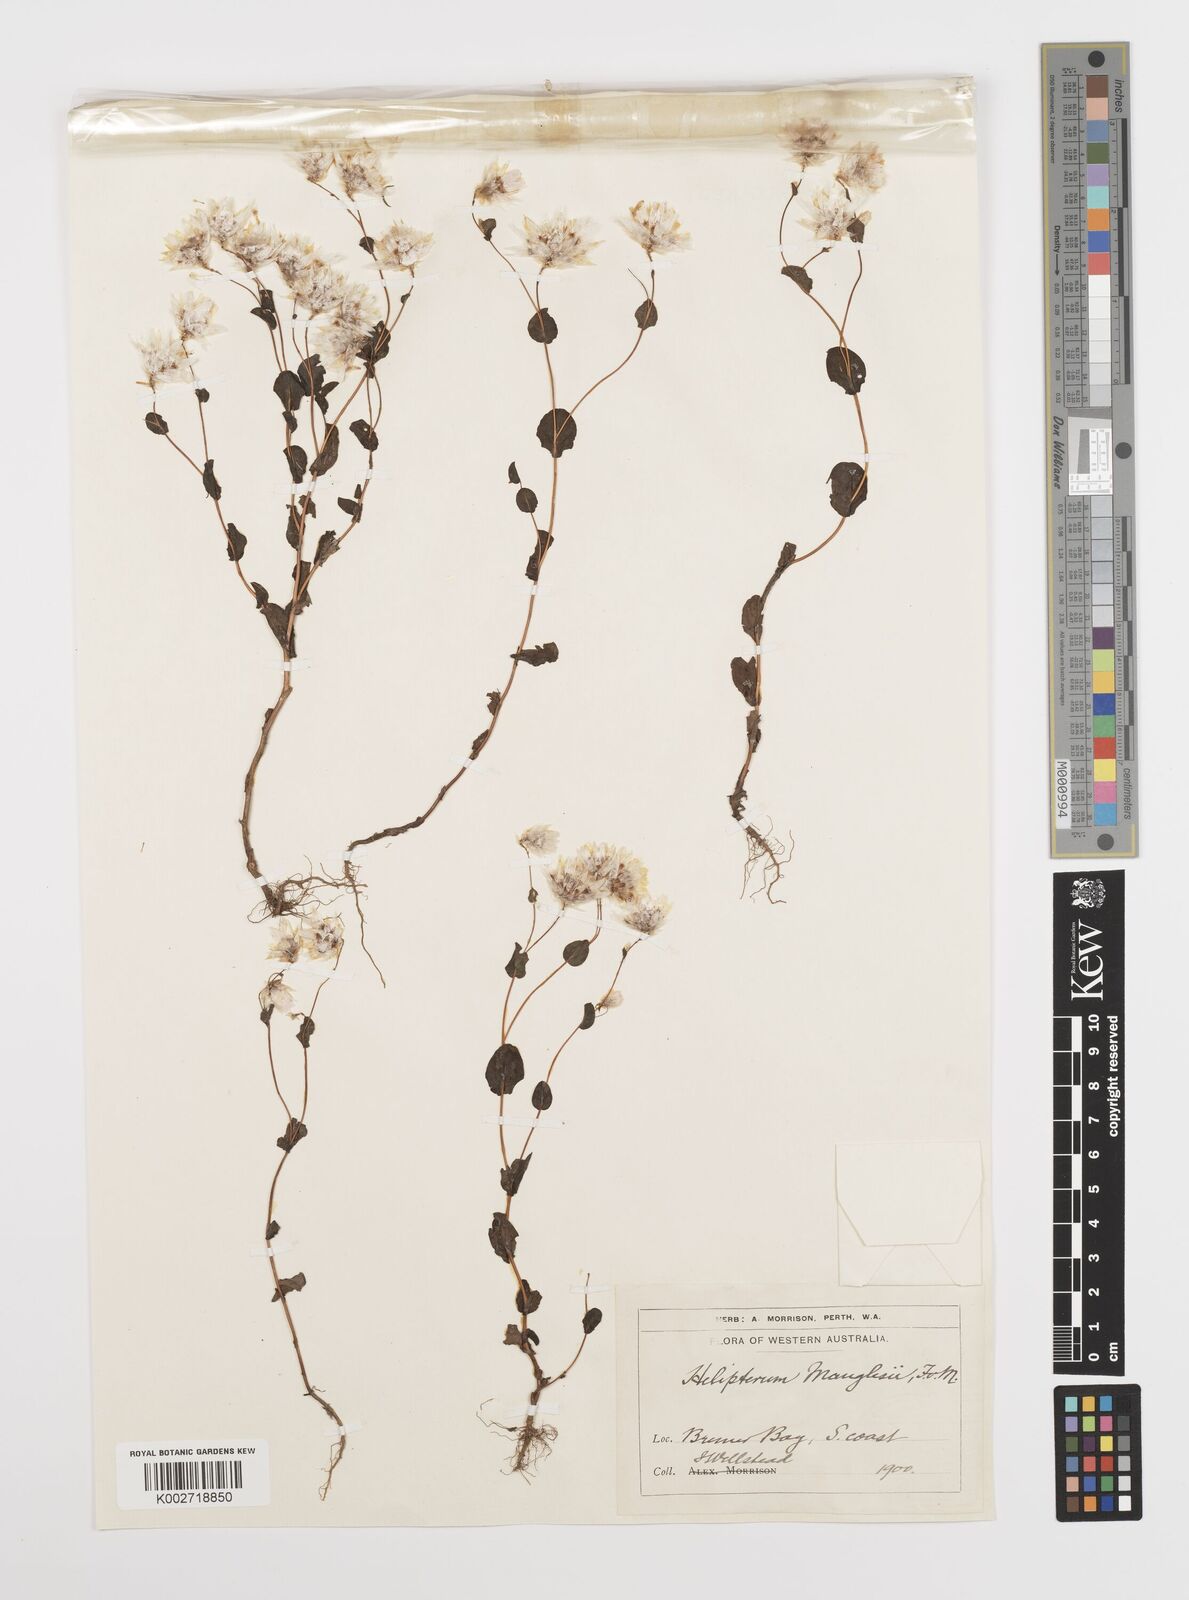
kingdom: Plantae
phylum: Tracheophyta
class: Magnoliopsida
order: Asterales
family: Asteraceae
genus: Rhodanthe
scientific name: Rhodanthe manglesii
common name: Pink sunray
